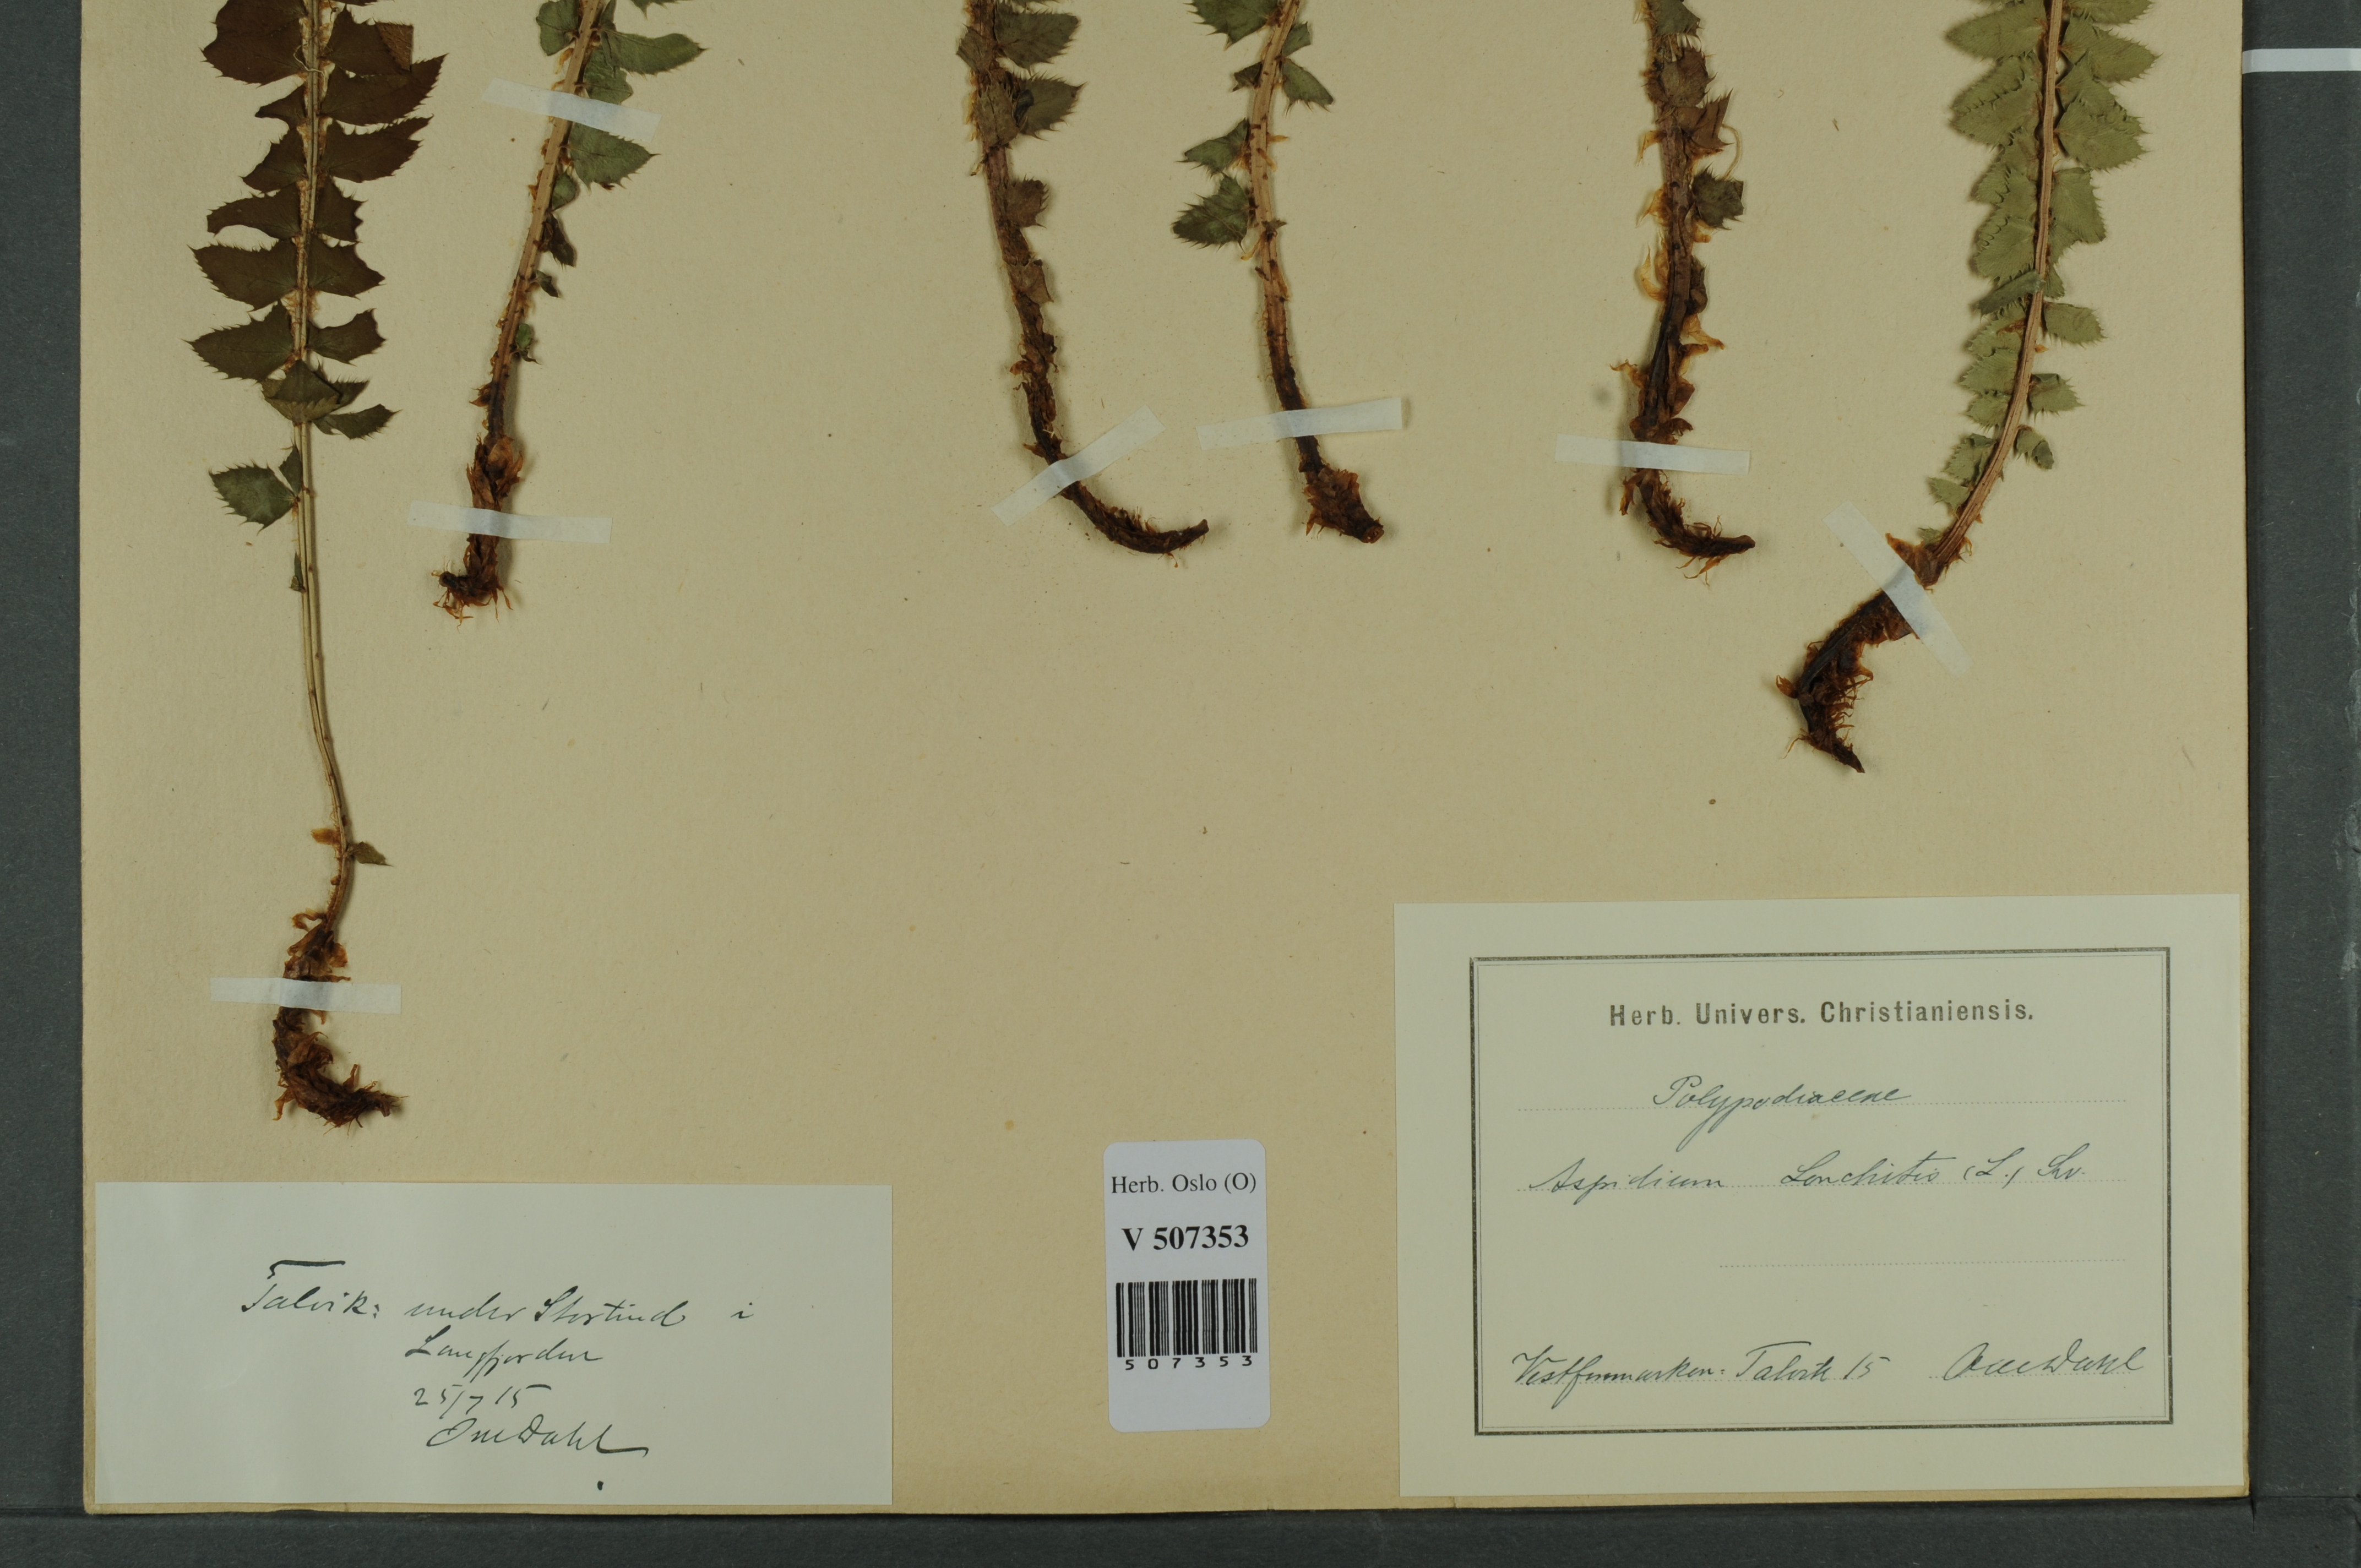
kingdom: Plantae
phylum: Tracheophyta
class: Polypodiopsida
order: Polypodiales
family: Dryopteridaceae
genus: Polystichum
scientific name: Polystichum lonchitis
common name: Holly fern
